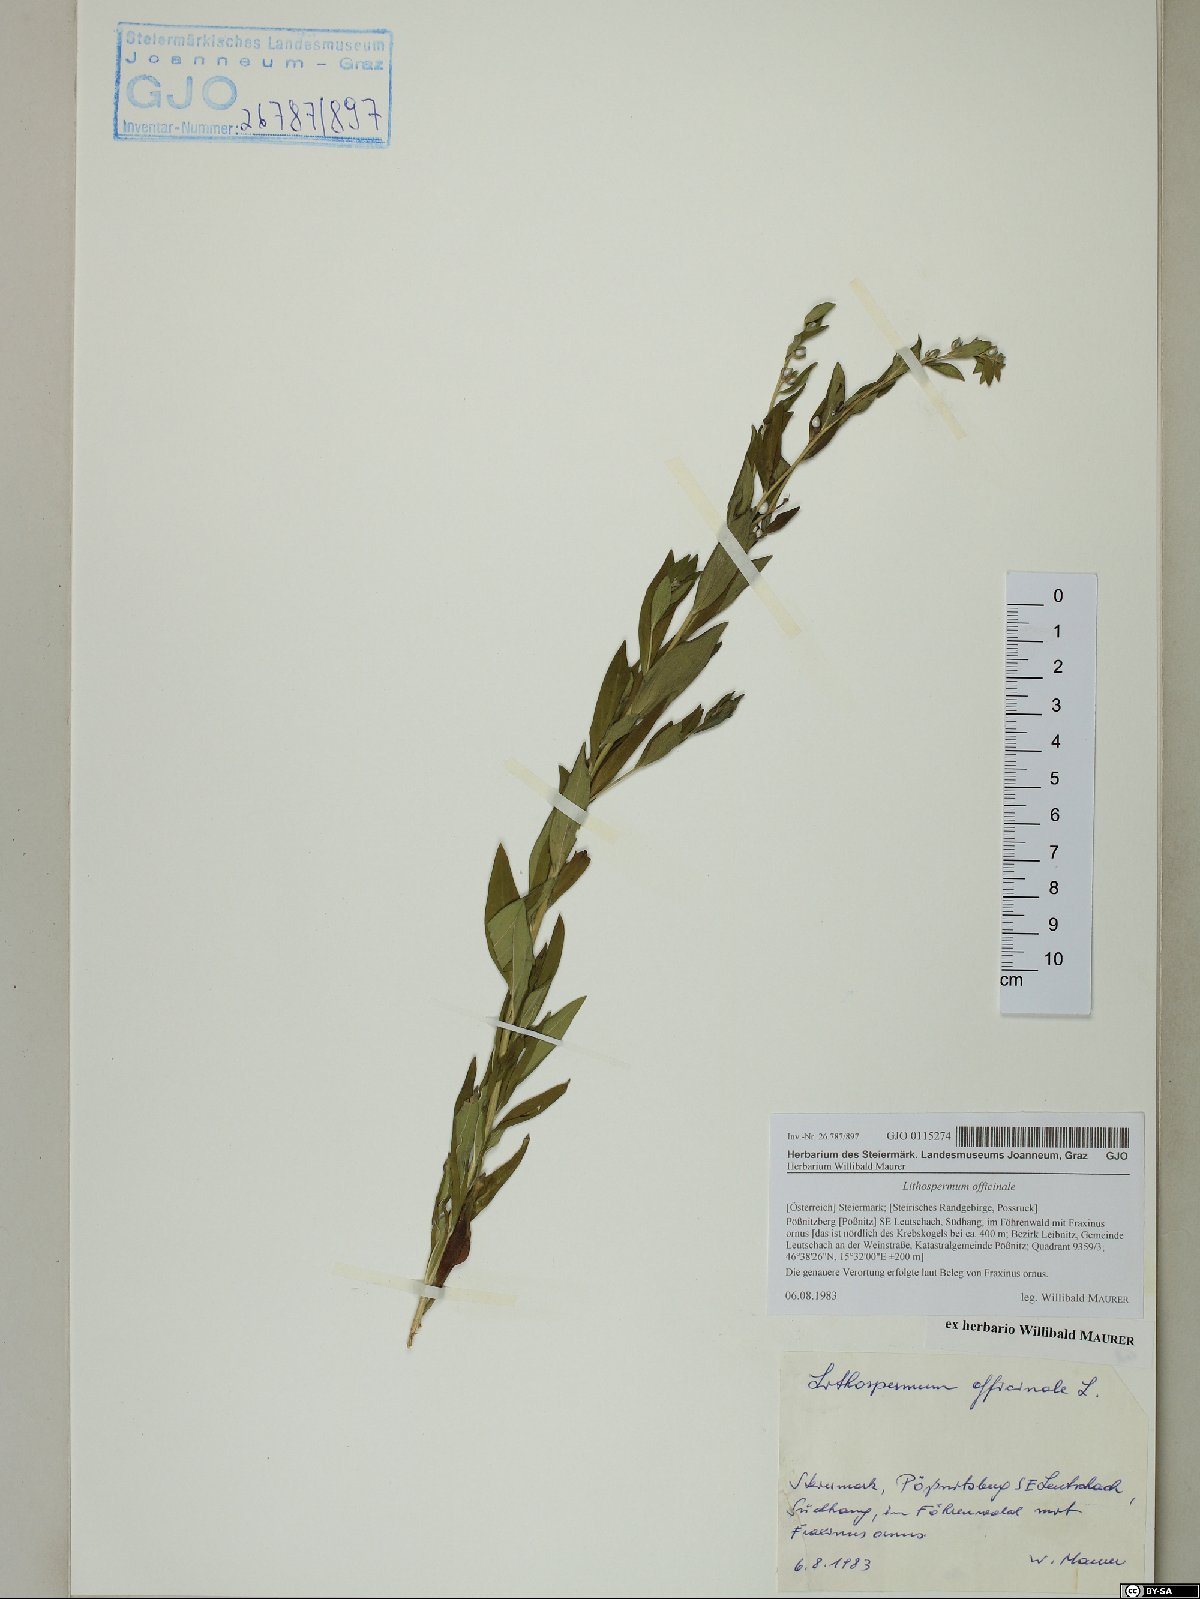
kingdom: Plantae
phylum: Tracheophyta
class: Magnoliopsida
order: Boraginales
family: Boraginaceae
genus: Lithospermum
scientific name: Lithospermum officinale
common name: Common gromwell
